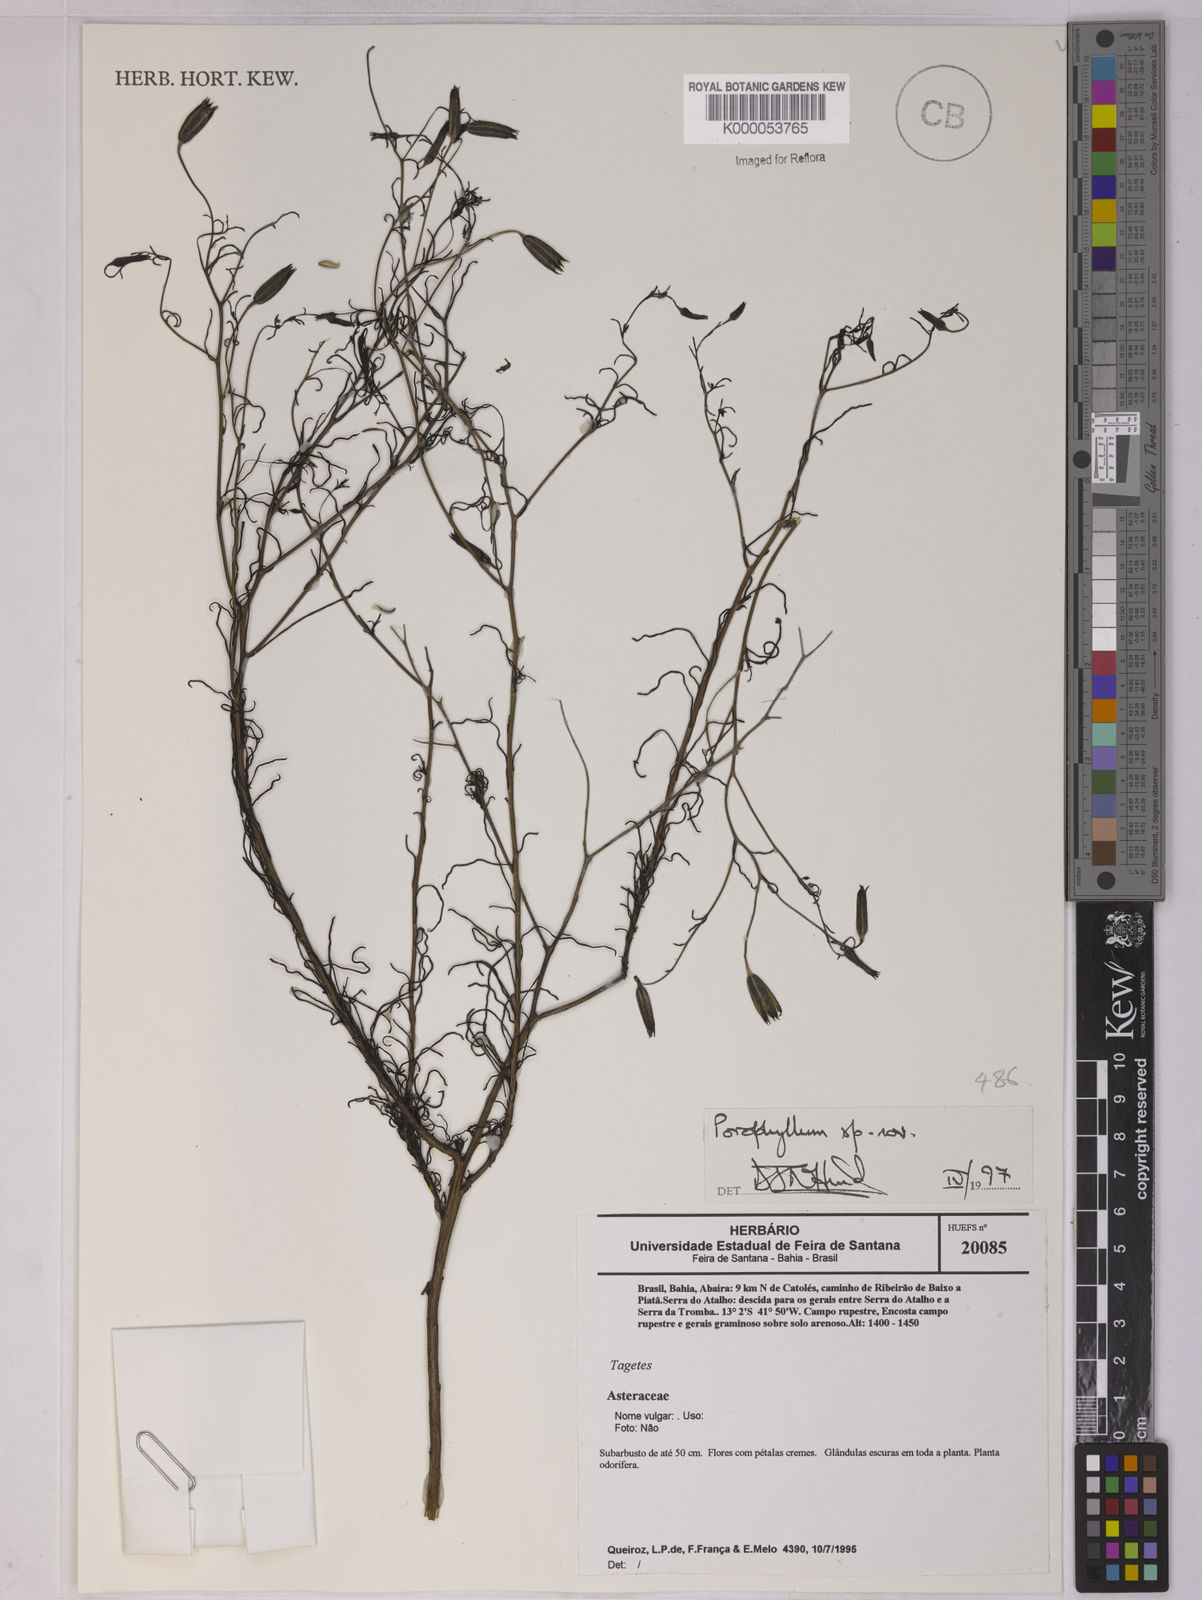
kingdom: Plantae
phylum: Tracheophyta
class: Magnoliopsida
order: Asterales
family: Asteraceae
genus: Porophyllum
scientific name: Porophyllum
